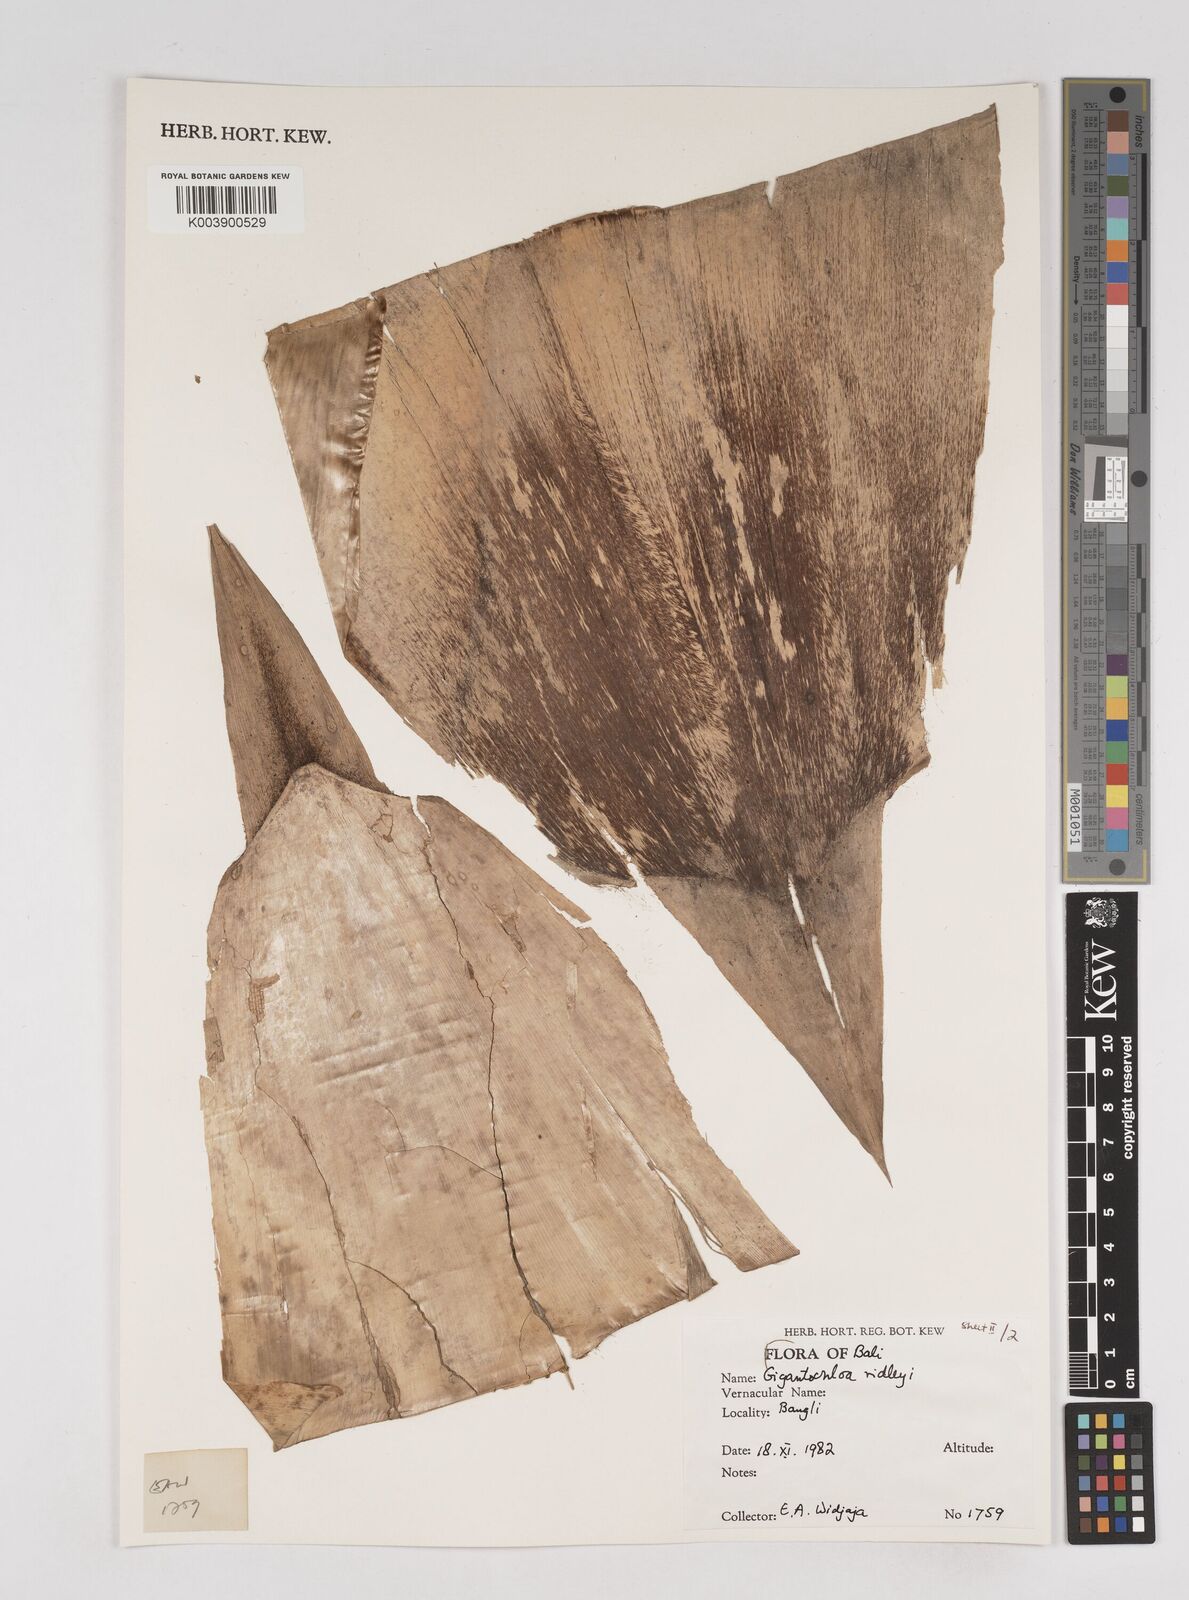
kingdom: Plantae
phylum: Tracheophyta
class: Liliopsida
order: Poales
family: Poaceae
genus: Gigantochloa
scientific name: Gigantochloa ridleyi
